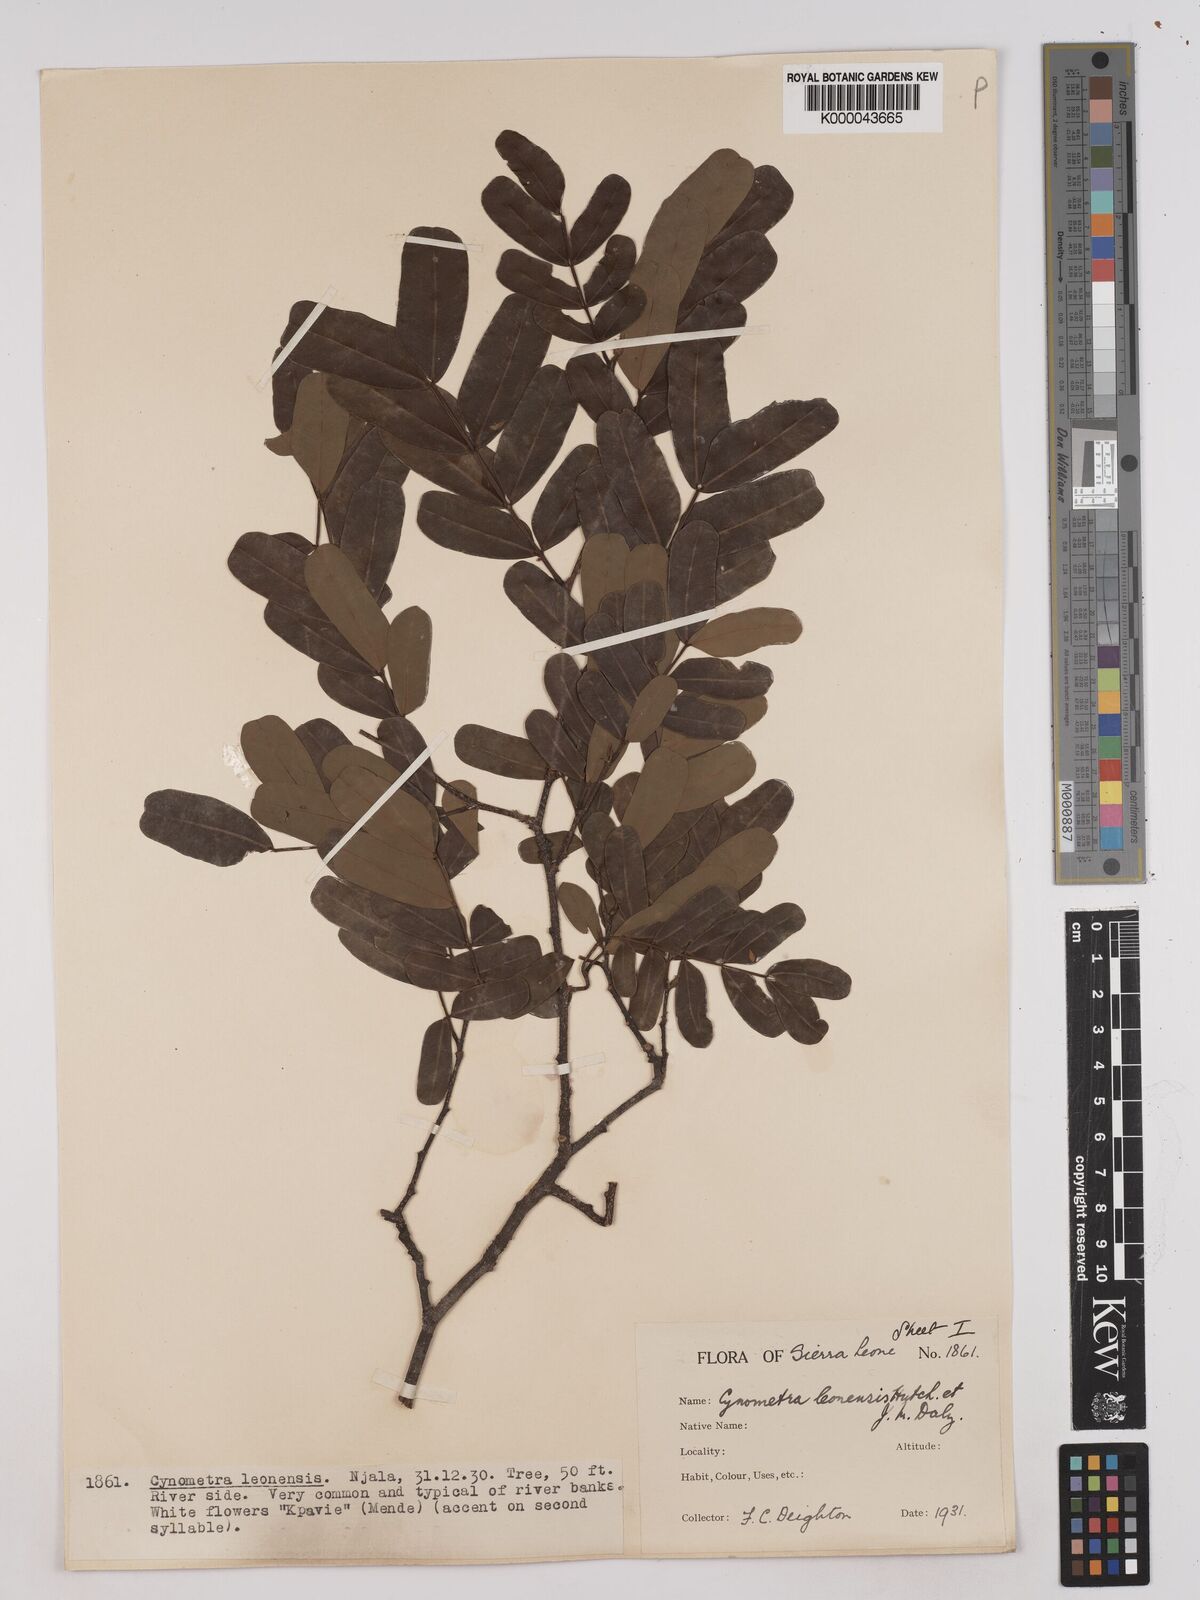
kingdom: Plantae
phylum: Tracheophyta
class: Magnoliopsida
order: Fabales
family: Fabaceae
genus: Cynometra
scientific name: Cynometra leonensis
